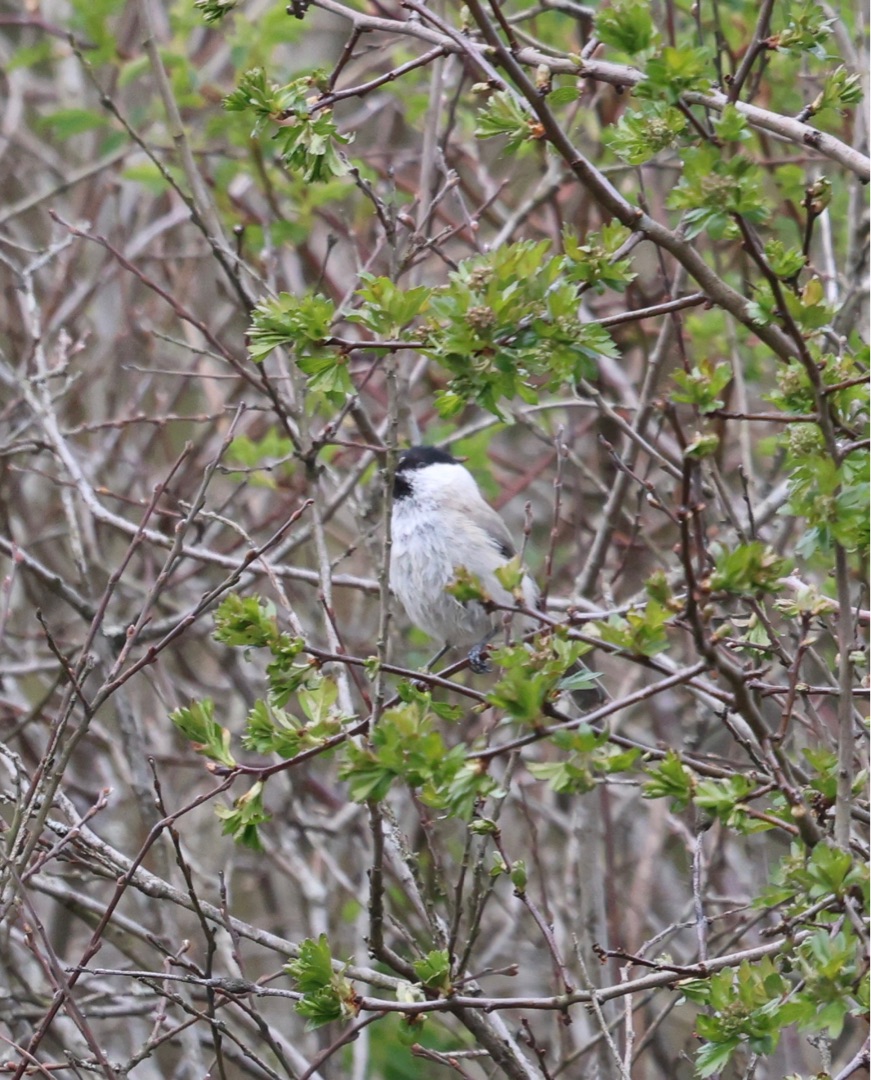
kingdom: Animalia
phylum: Chordata
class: Aves
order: Passeriformes
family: Paridae
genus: Poecile
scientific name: Poecile palustris
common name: Sumpmejse
